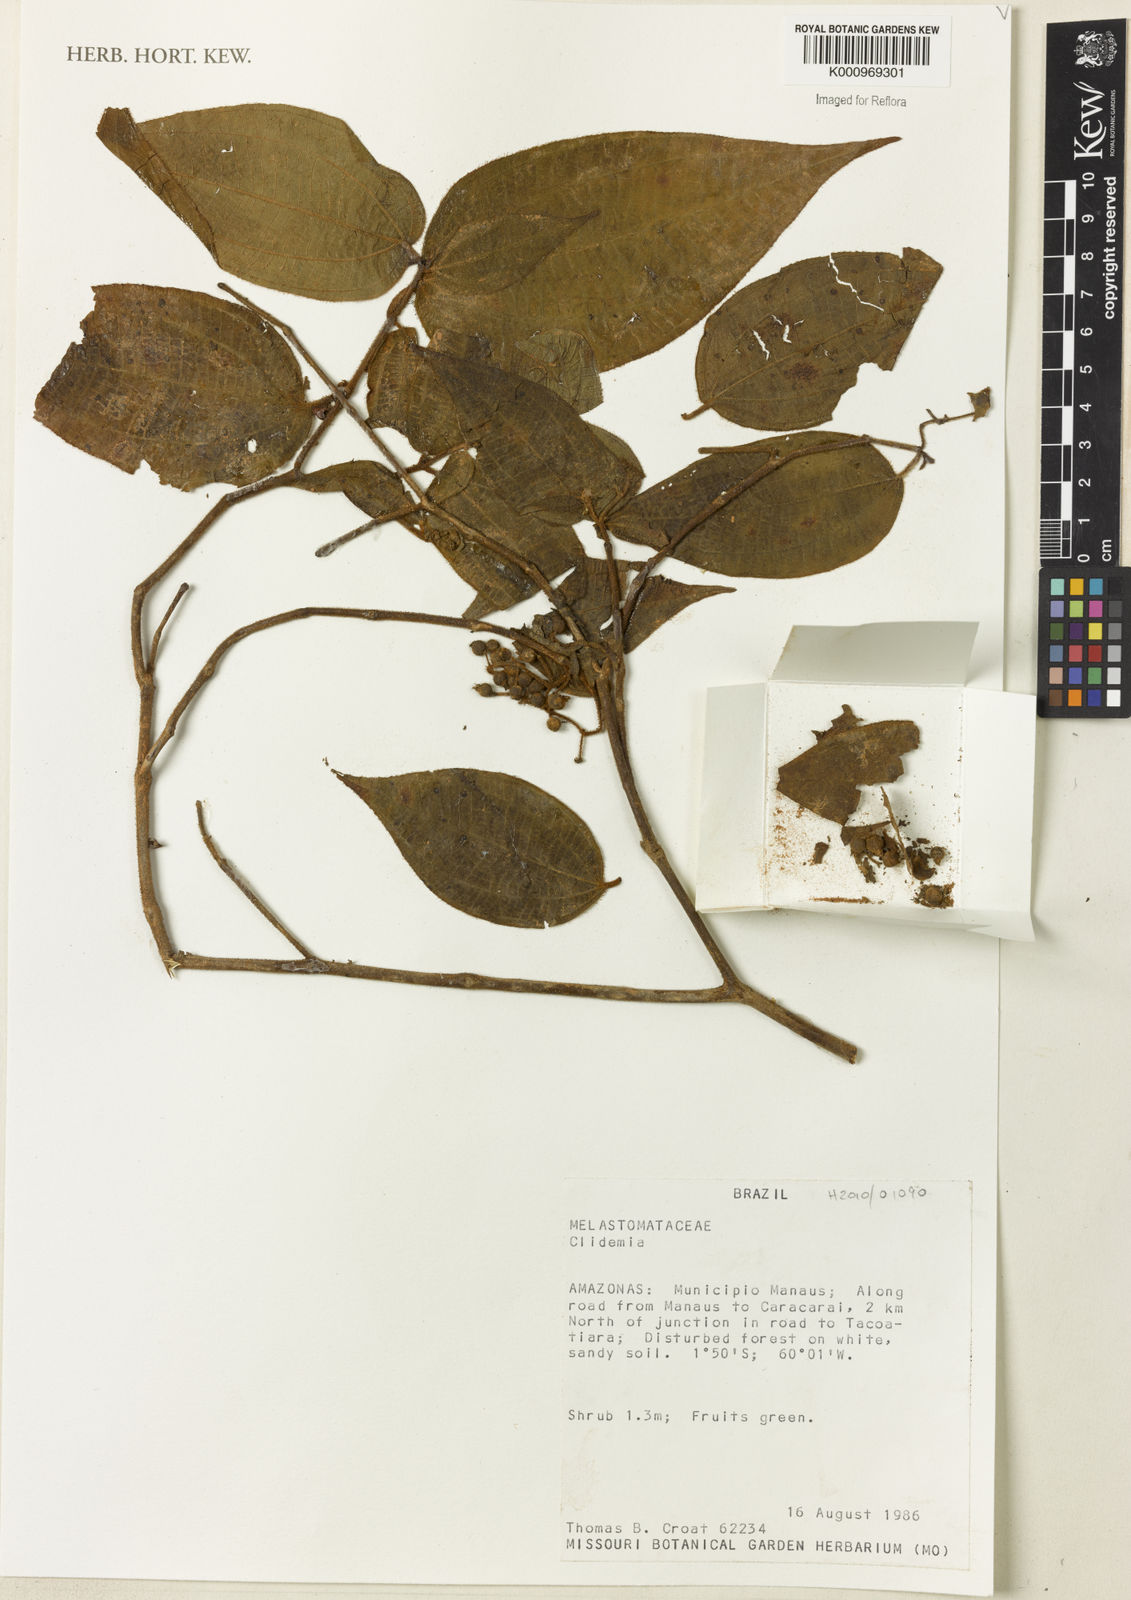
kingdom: Plantae
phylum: Tracheophyta
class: Magnoliopsida
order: Myrtales
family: Melastomataceae
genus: Miconia
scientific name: Miconia
